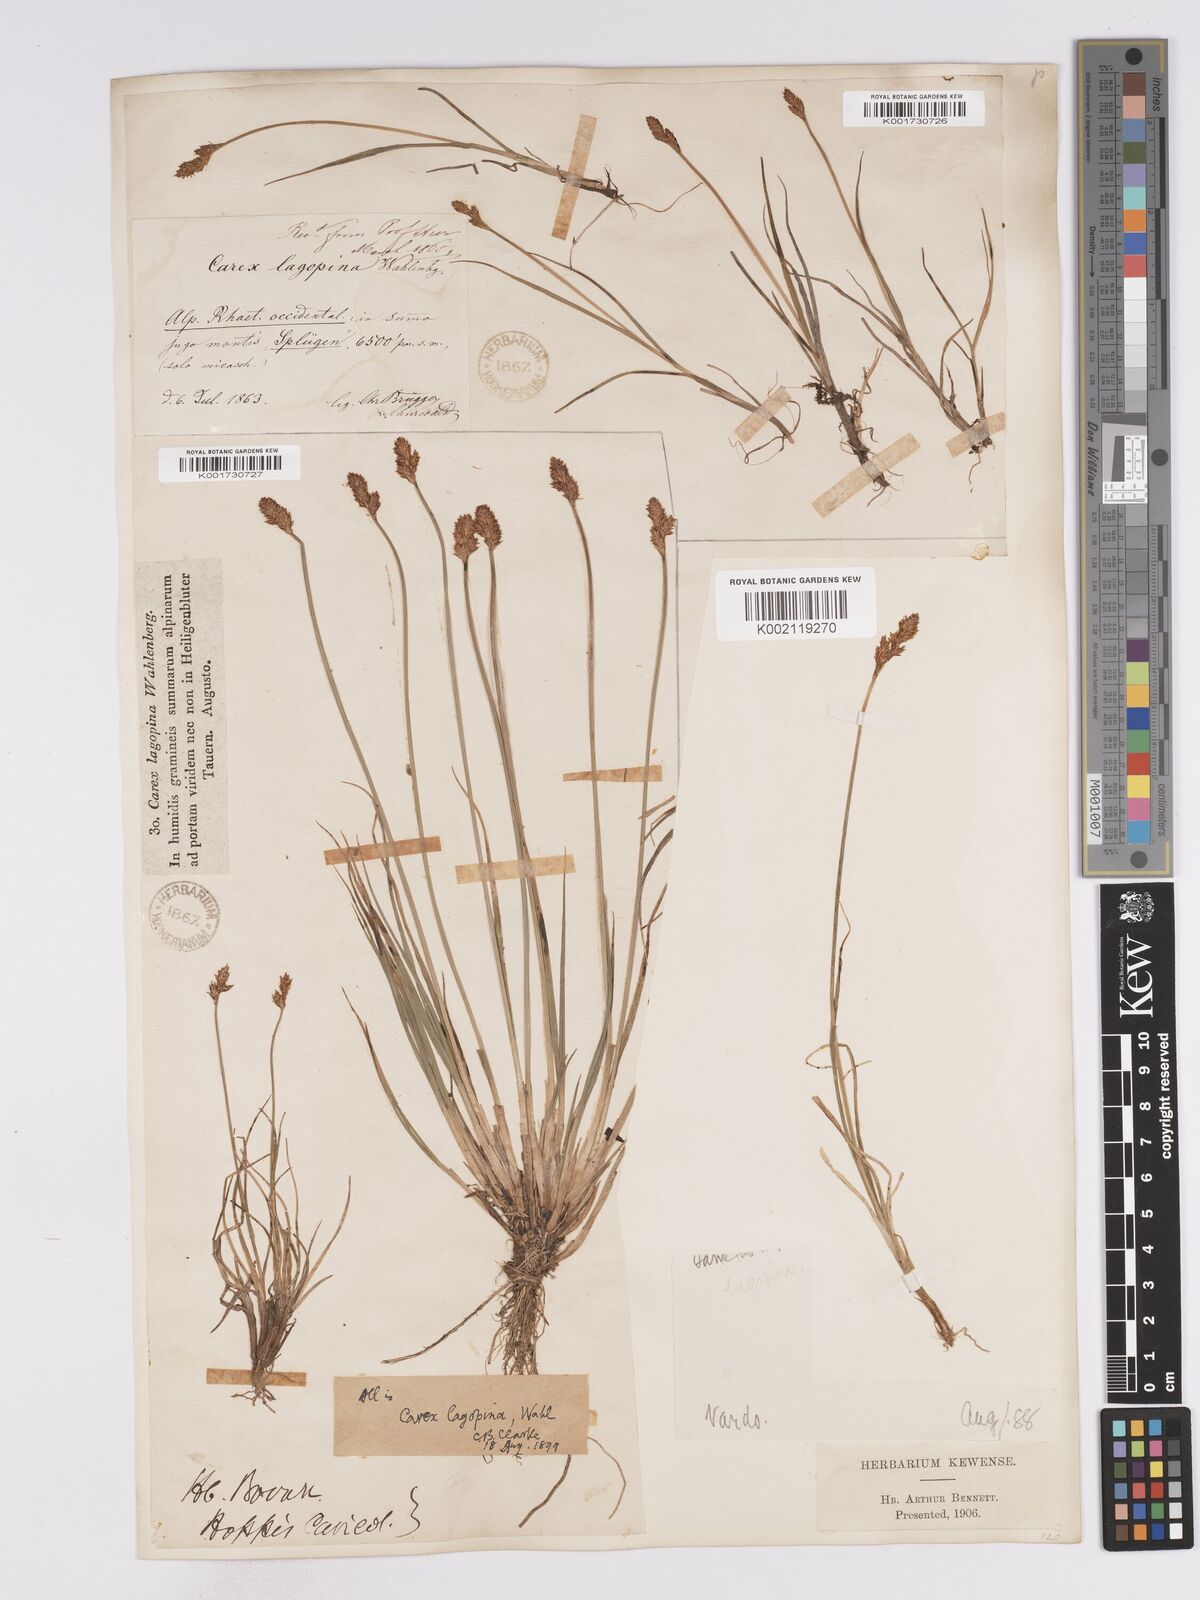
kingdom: Plantae
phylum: Tracheophyta
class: Liliopsida
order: Poales
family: Cyperaceae
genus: Carex
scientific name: Carex lachenalii
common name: Hare's-foot sedge
